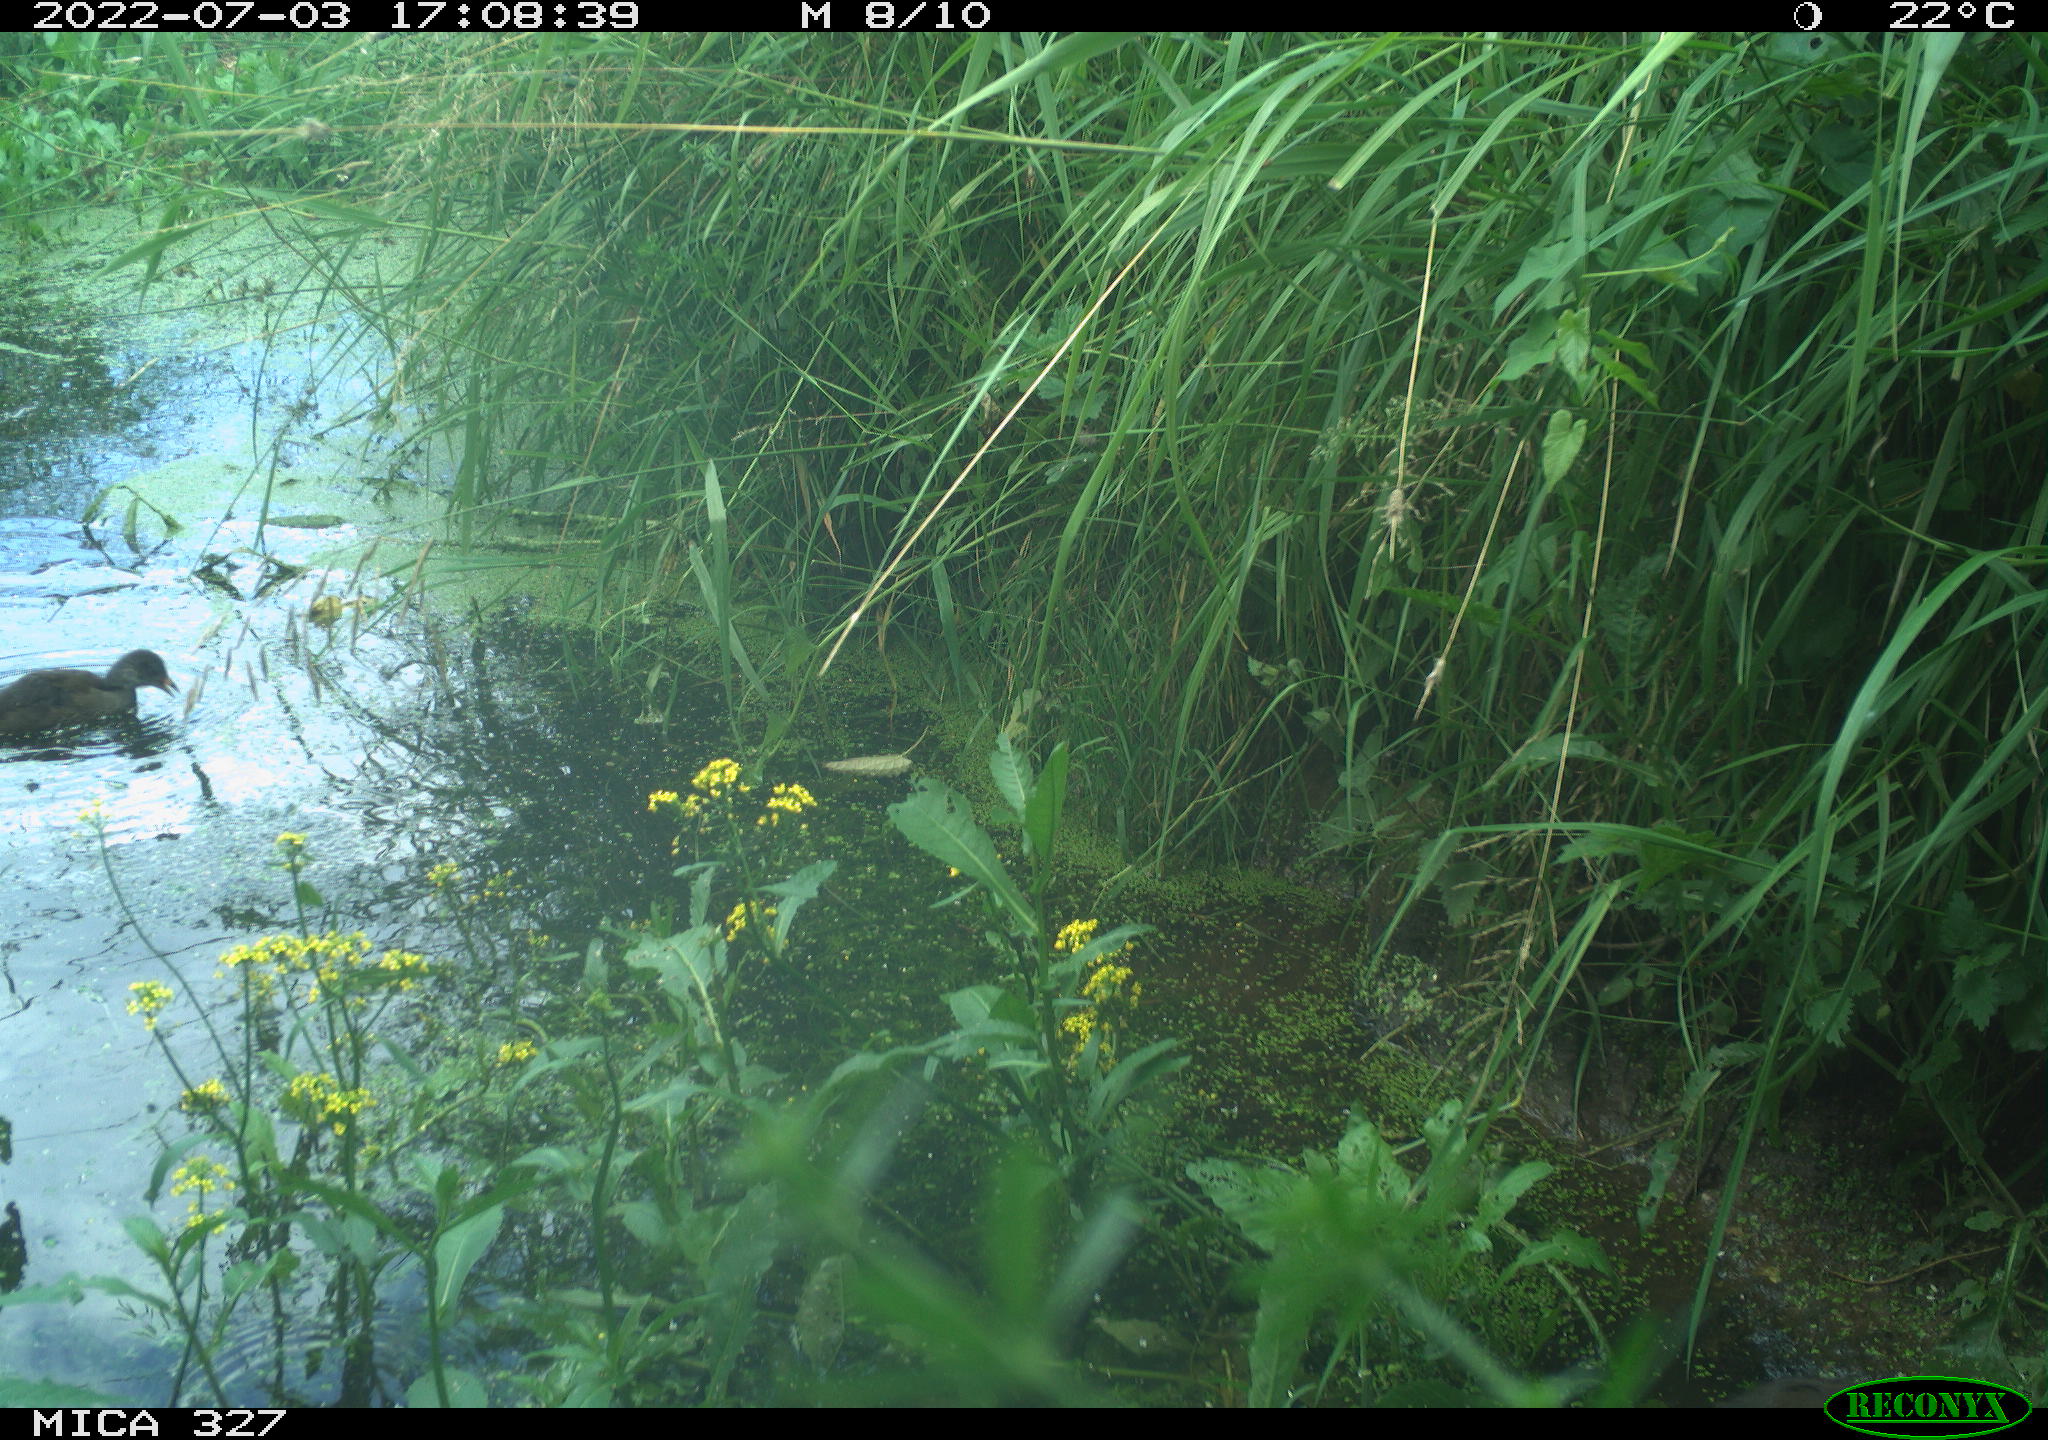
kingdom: Animalia
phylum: Chordata
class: Aves
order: Gruiformes
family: Rallidae
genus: Gallinula
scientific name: Gallinula chloropus
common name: Common moorhen
